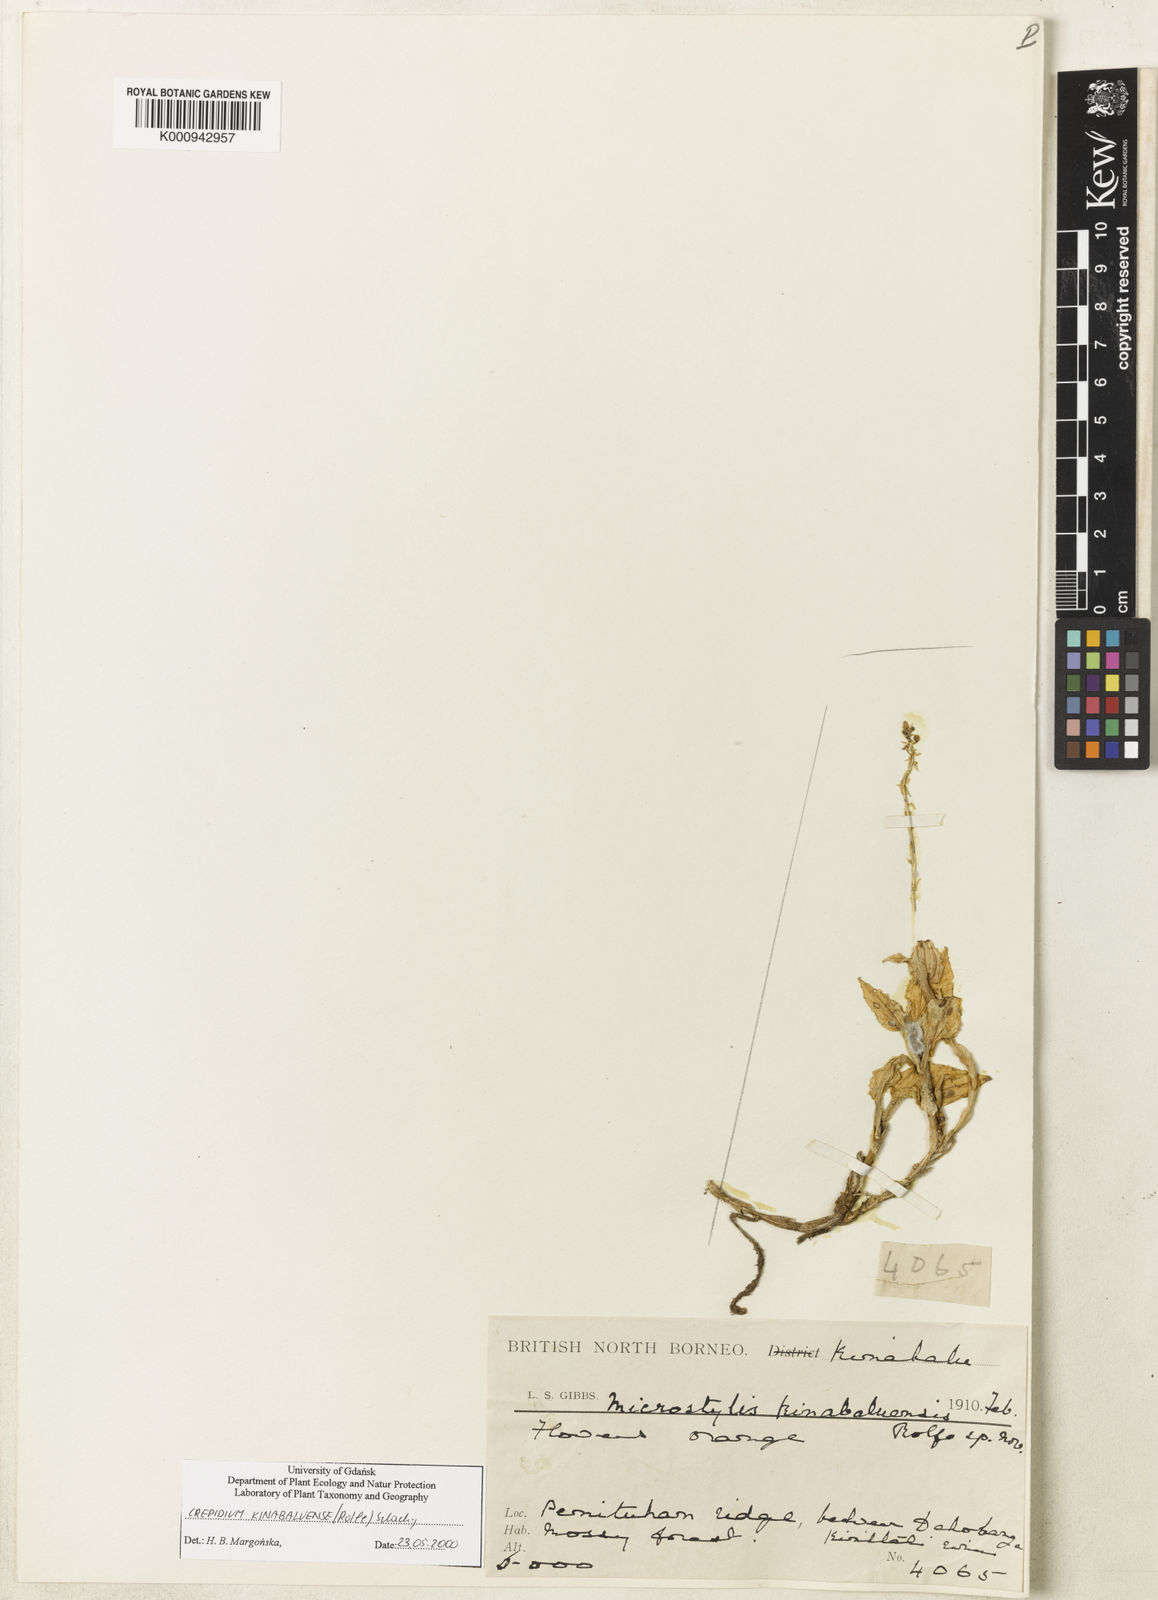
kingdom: Plantae
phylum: Tracheophyta
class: Liliopsida
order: Asparagales
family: Orchidaceae
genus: Crepidium
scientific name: Crepidium kinabaluense
